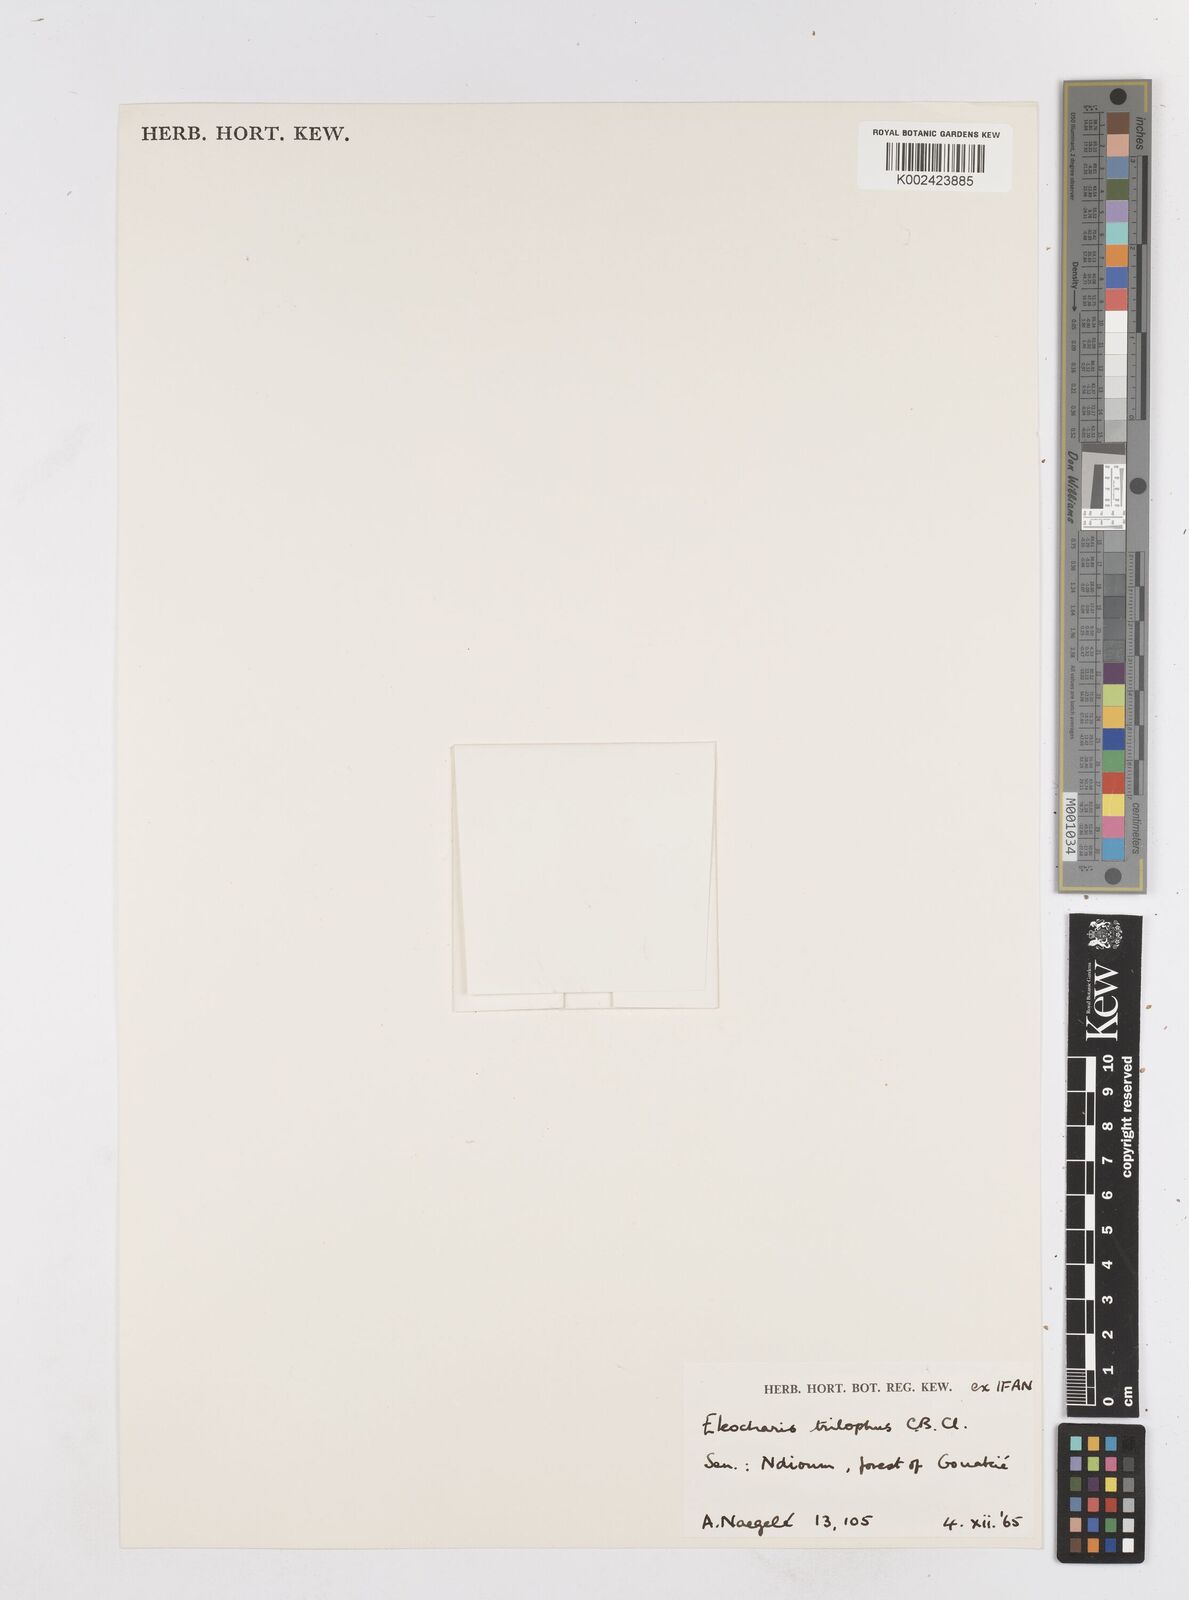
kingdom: Plantae
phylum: Tracheophyta
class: Liliopsida
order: Poales
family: Cyperaceae
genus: Eleocharis
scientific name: Eleocharis trilophus
